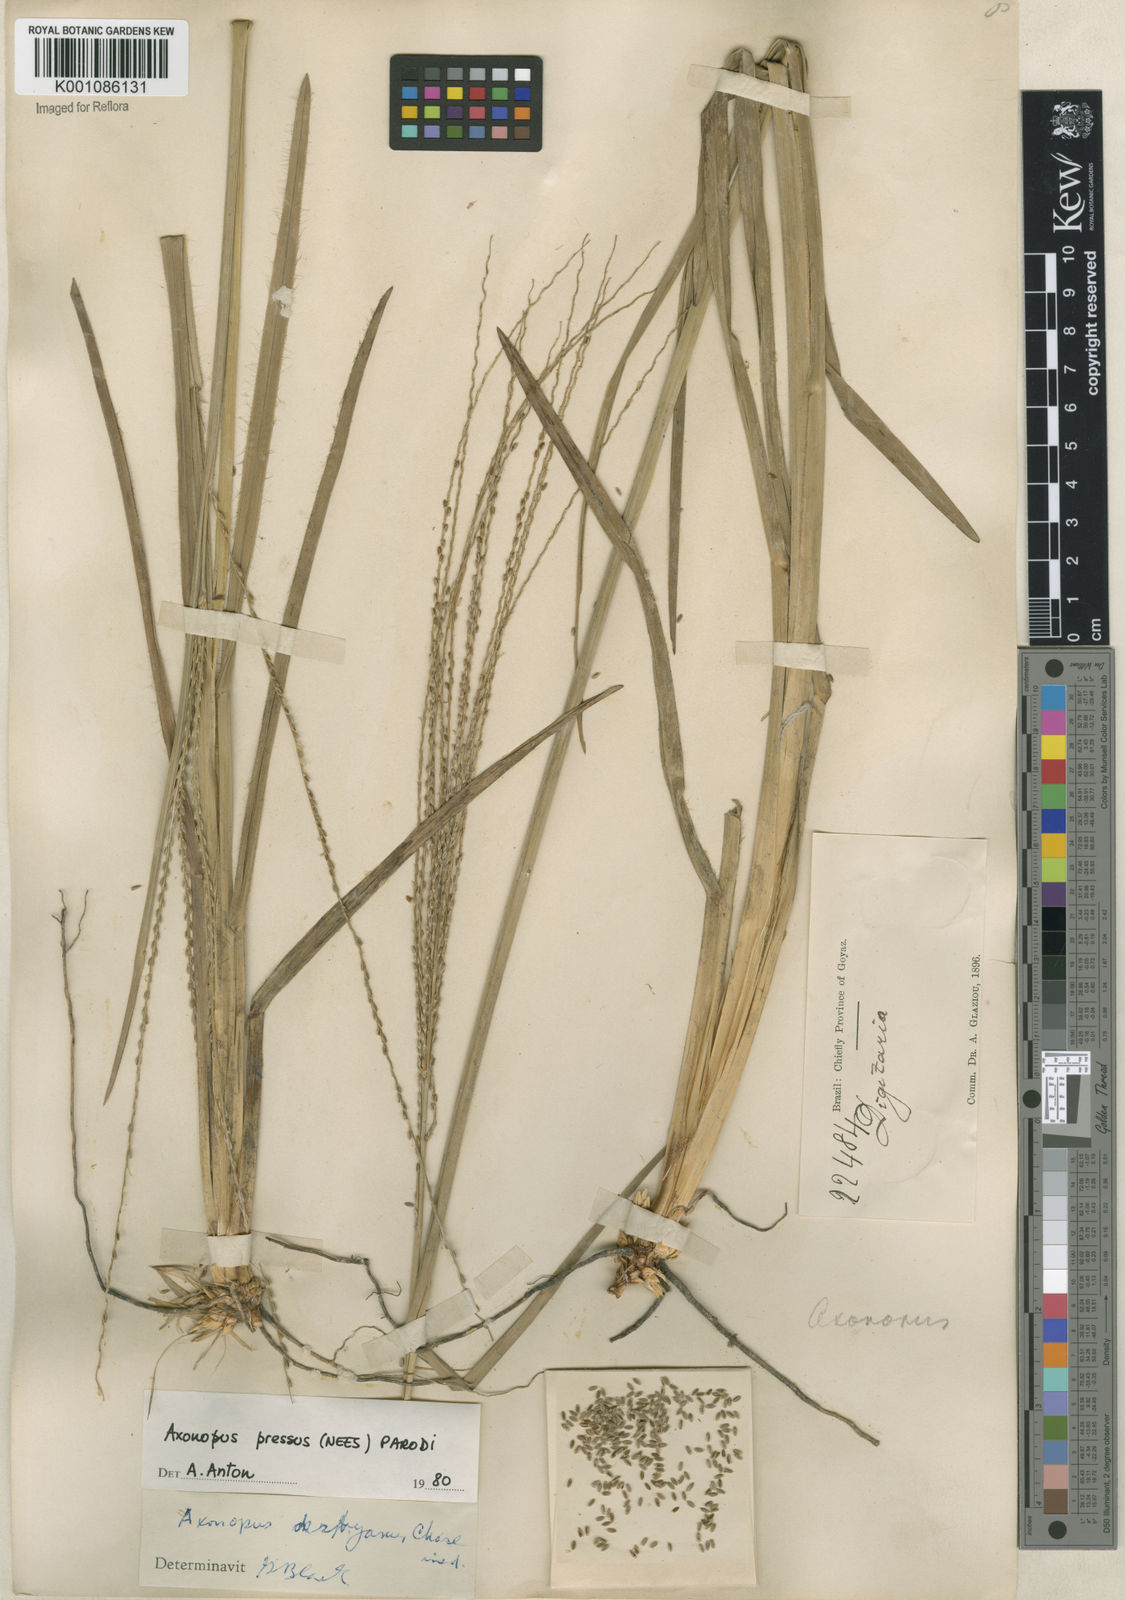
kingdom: Plantae
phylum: Tracheophyta
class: Liliopsida
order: Poales
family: Poaceae
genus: Axonopus
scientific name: Axonopus pressus
